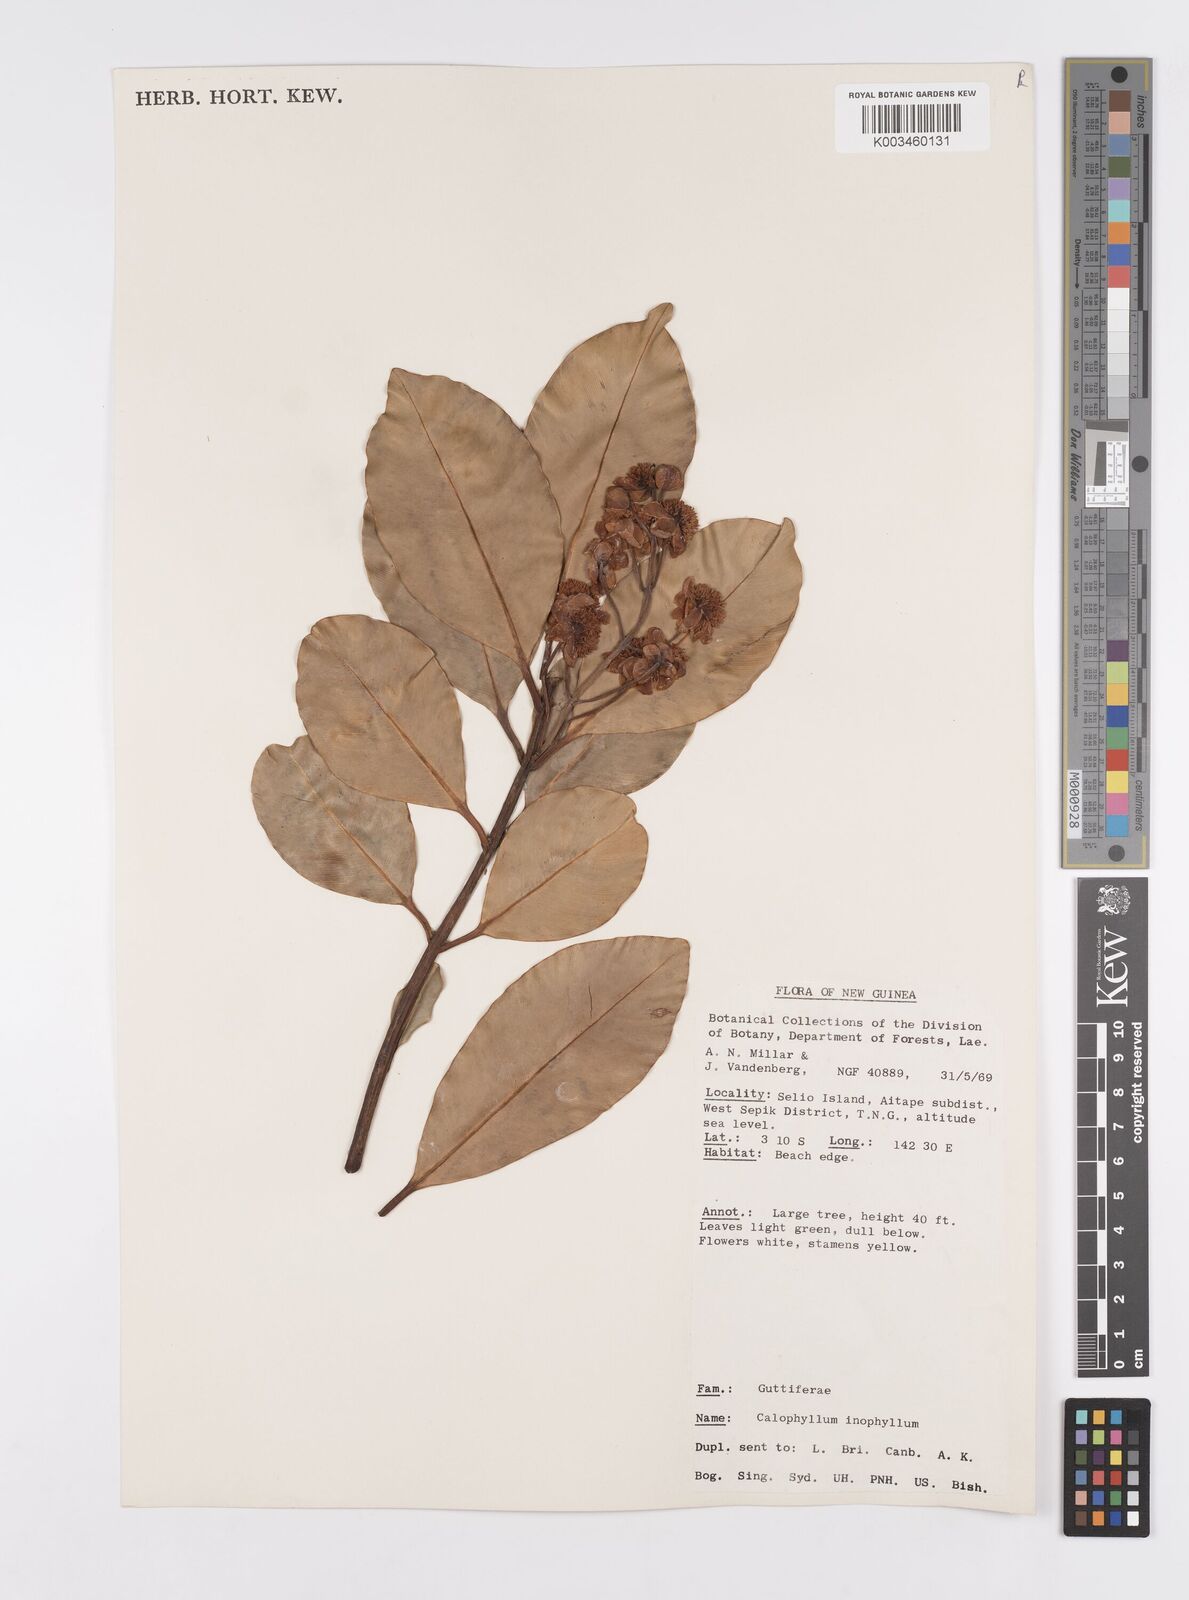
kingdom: Plantae
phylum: Tracheophyta
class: Magnoliopsida
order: Malpighiales
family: Calophyllaceae
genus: Calophyllum
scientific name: Calophyllum inophyllum
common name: Alexandrian laurel
